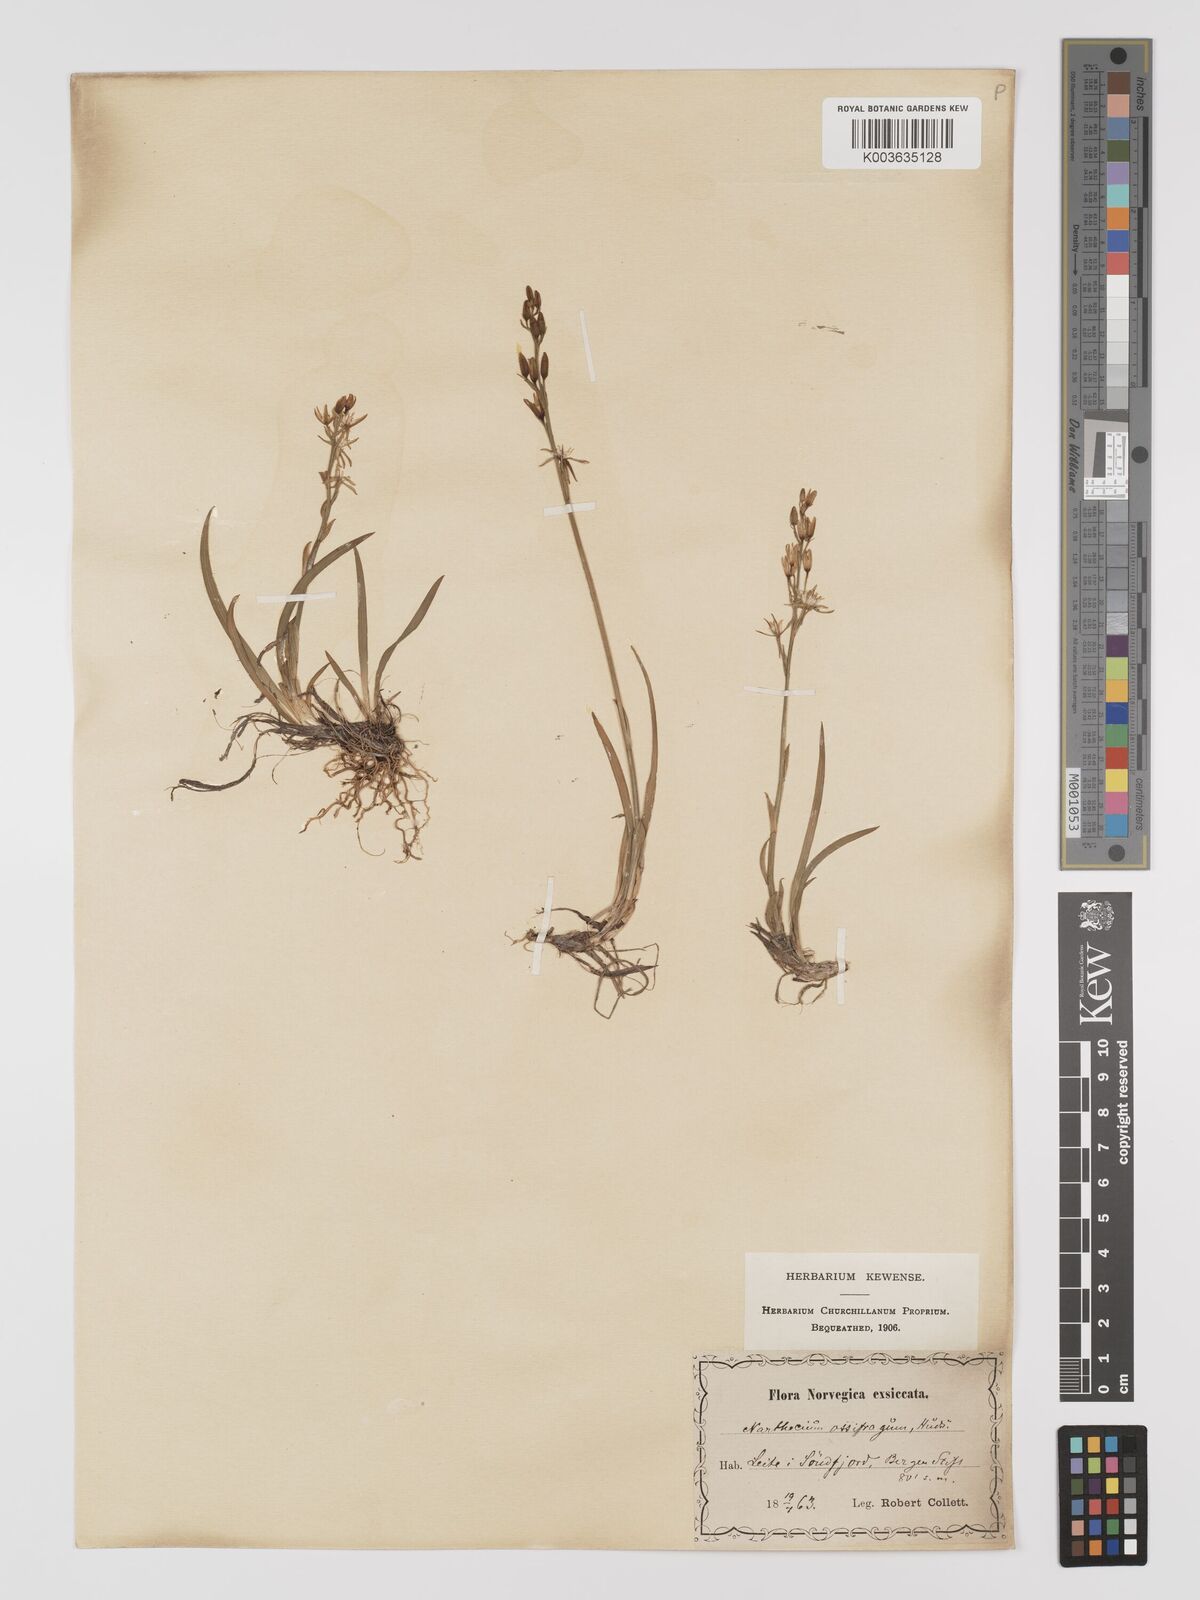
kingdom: Plantae
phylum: Tracheophyta
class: Liliopsida
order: Dioscoreales
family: Nartheciaceae
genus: Narthecium
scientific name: Narthecium ossifragum
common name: Bog asphodel
